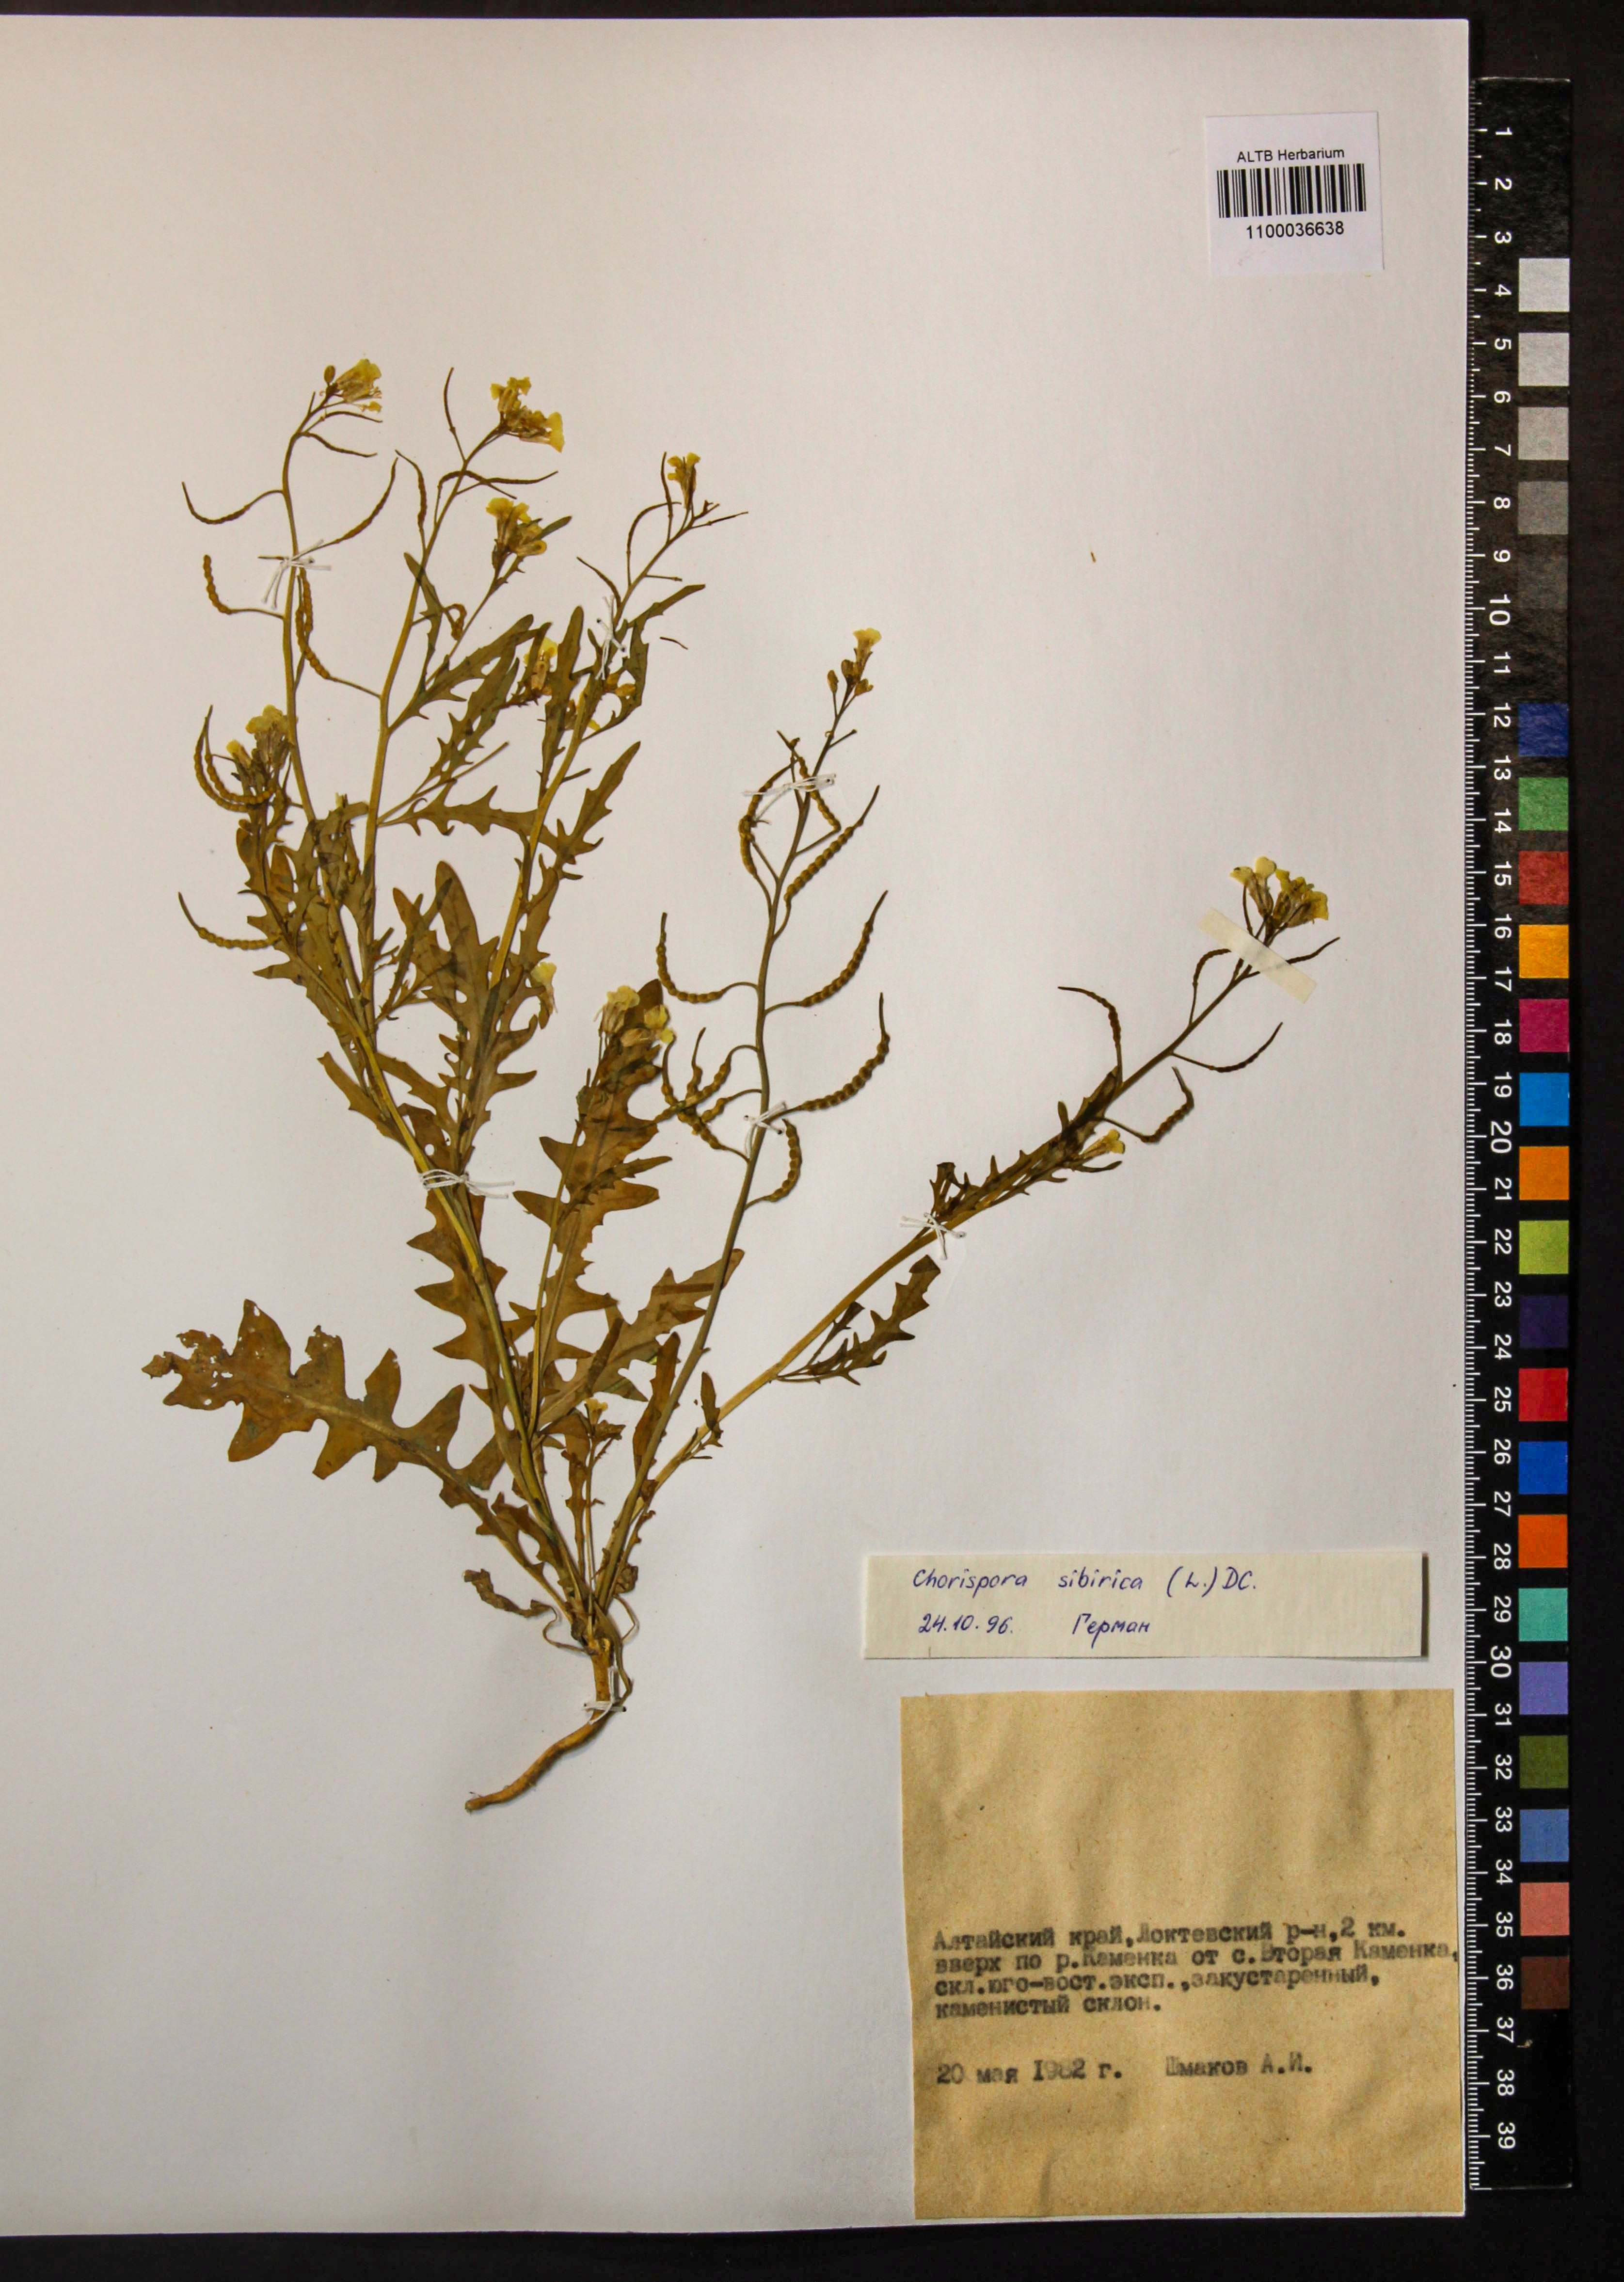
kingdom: Plantae
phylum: Tracheophyta
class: Magnoliopsida
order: Brassicales
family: Brassicaceae
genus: Chorispora
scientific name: Chorispora sibirica
